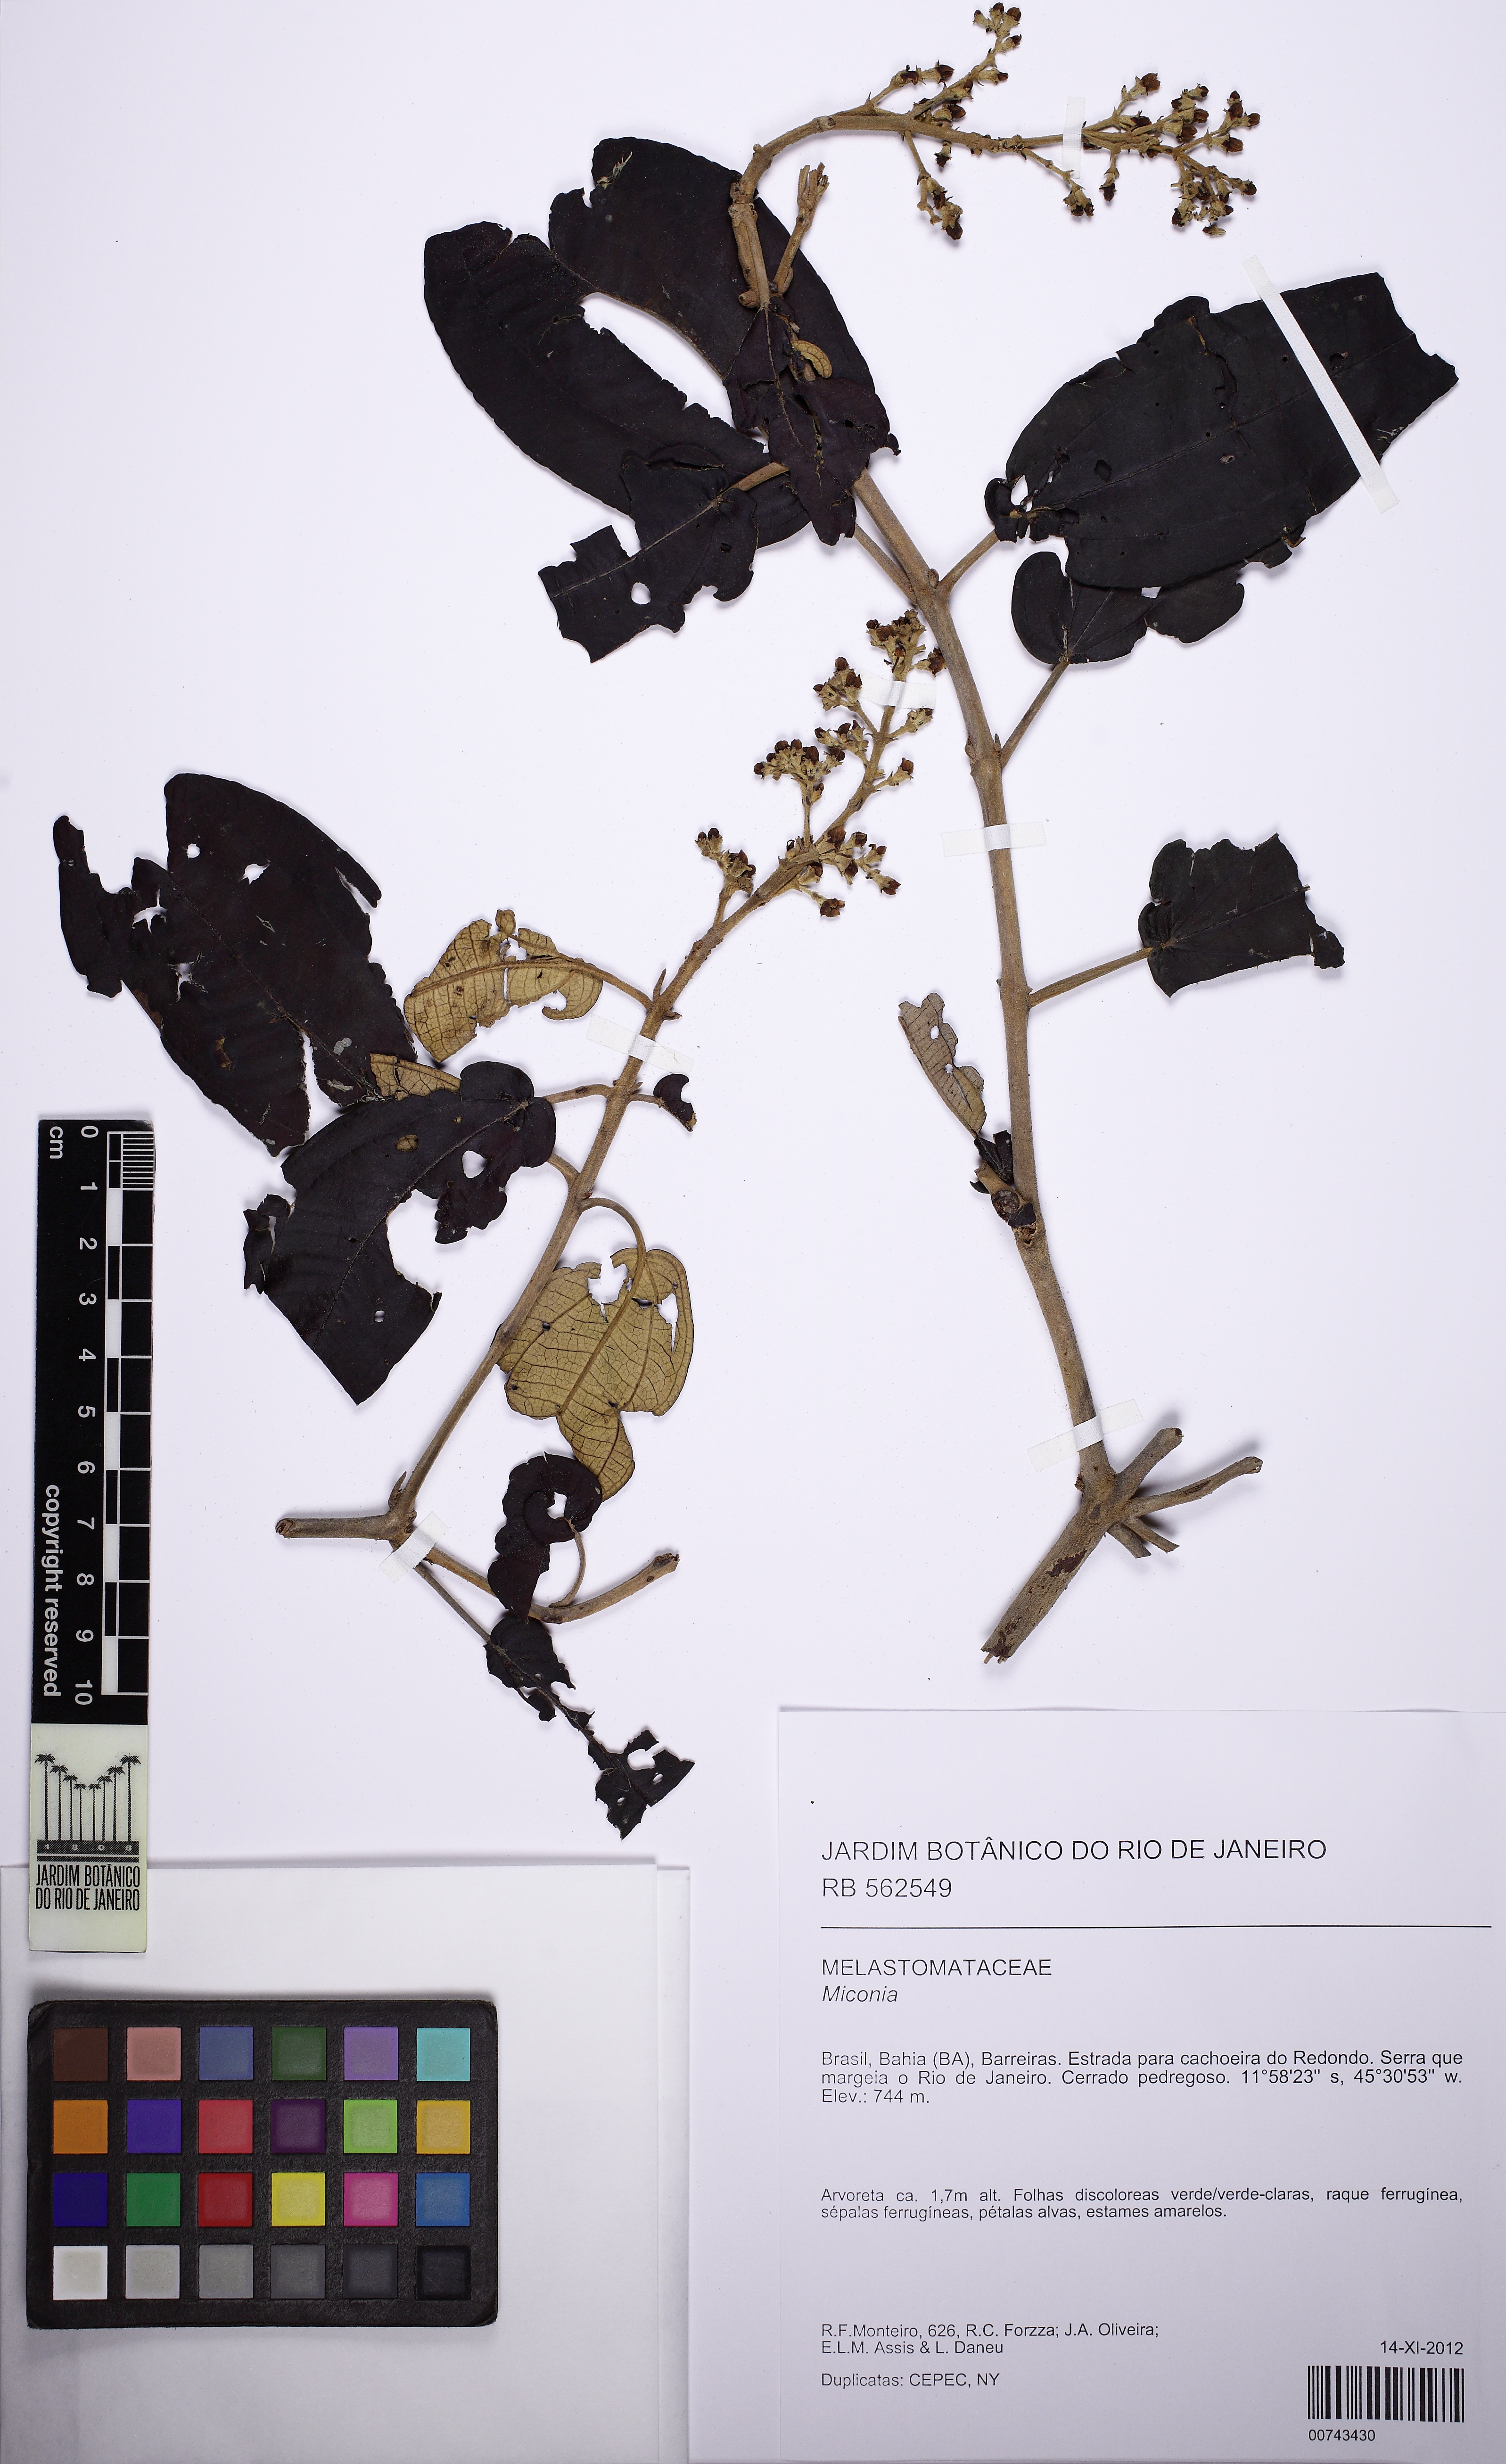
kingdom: Plantae
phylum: Tracheophyta
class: Magnoliopsida
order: Myrtales
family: Melastomataceae
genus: Miconia
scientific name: Miconia
